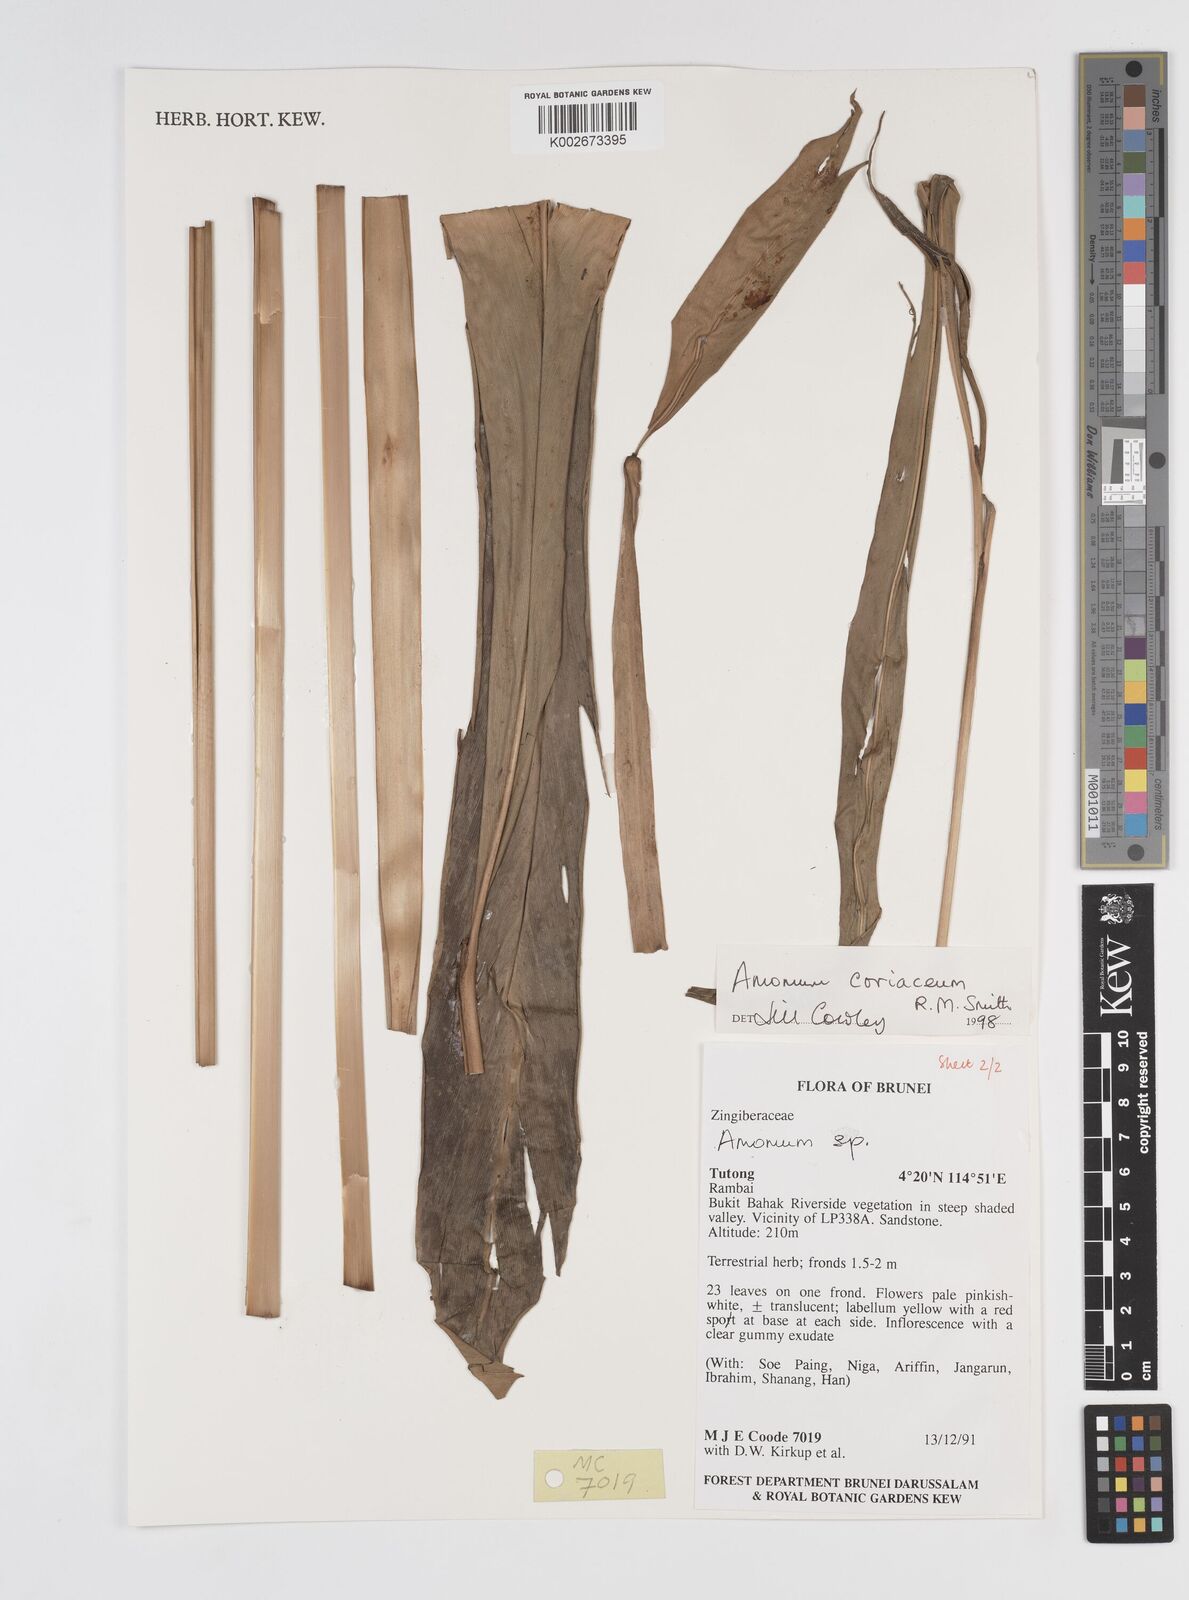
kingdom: Plantae
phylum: Tracheophyta
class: Liliopsida
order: Zingiberales
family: Zingiberaceae
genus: Conamomum
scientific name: Conamomum cylindrostachys
